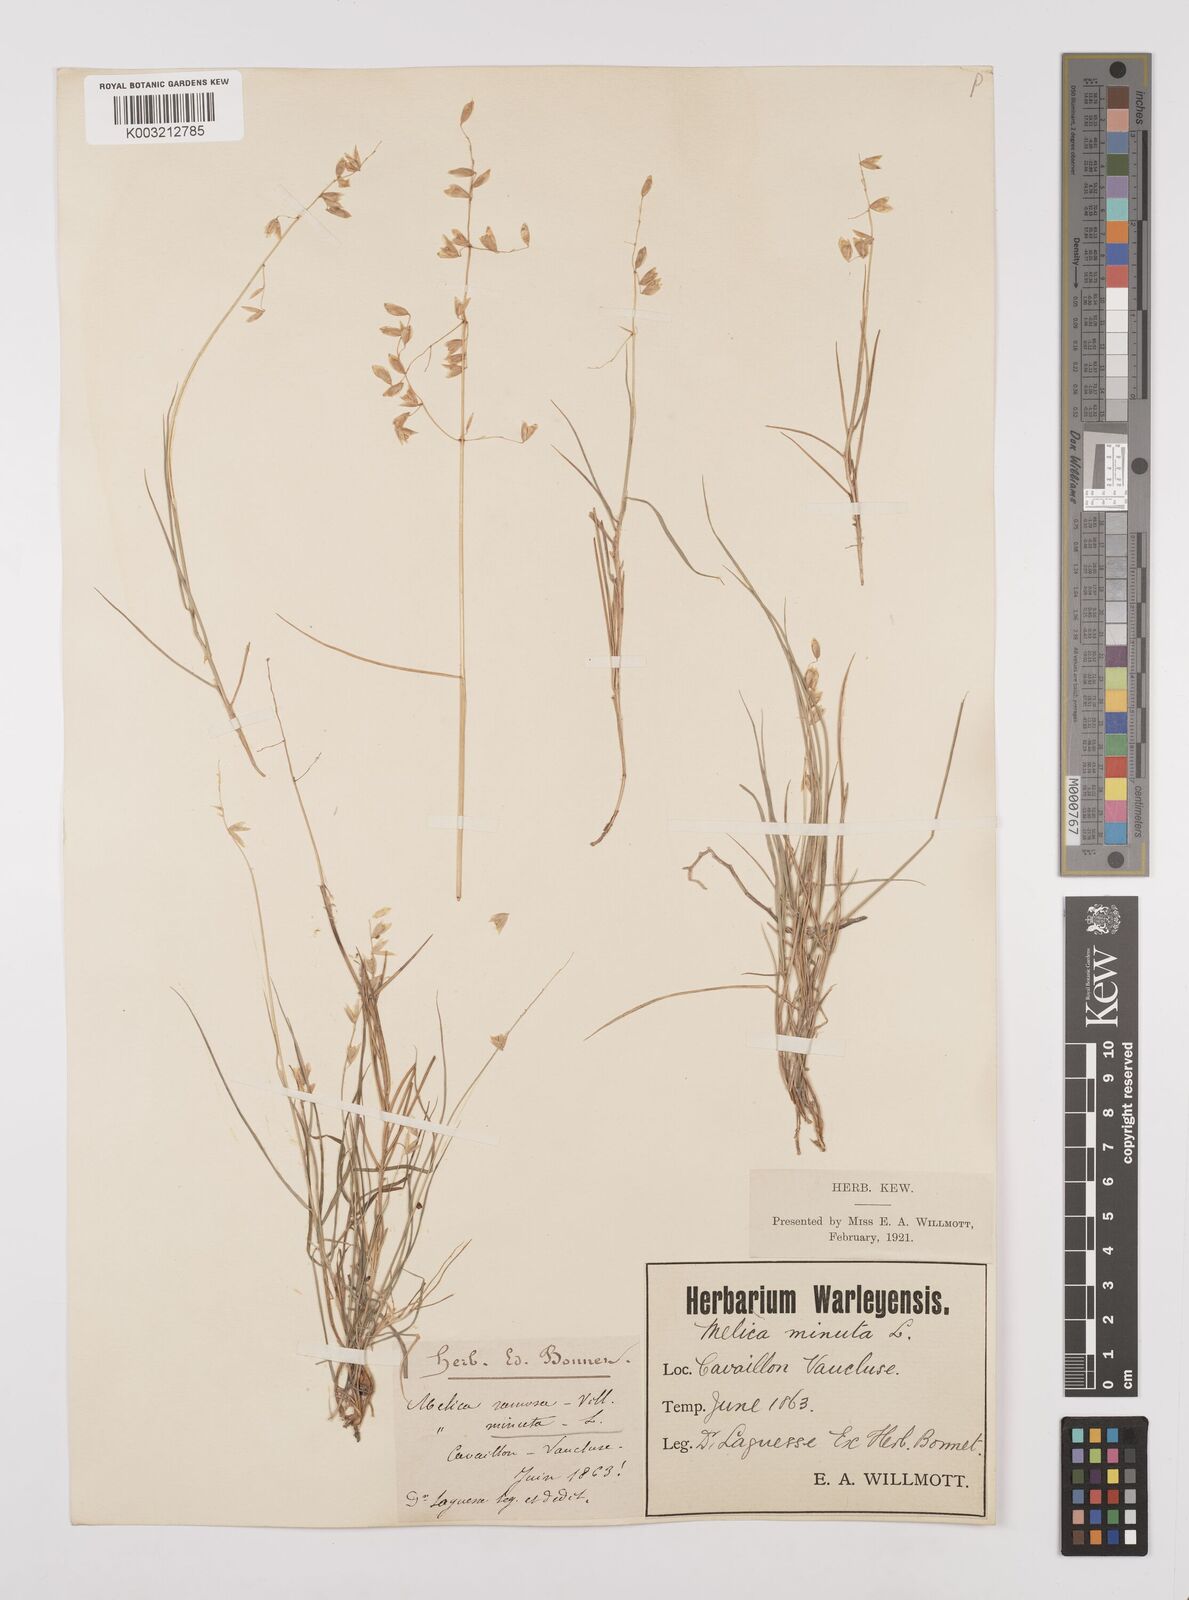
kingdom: Plantae
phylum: Tracheophyta
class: Liliopsida
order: Poales
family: Poaceae
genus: Melica
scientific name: Melica minuta
